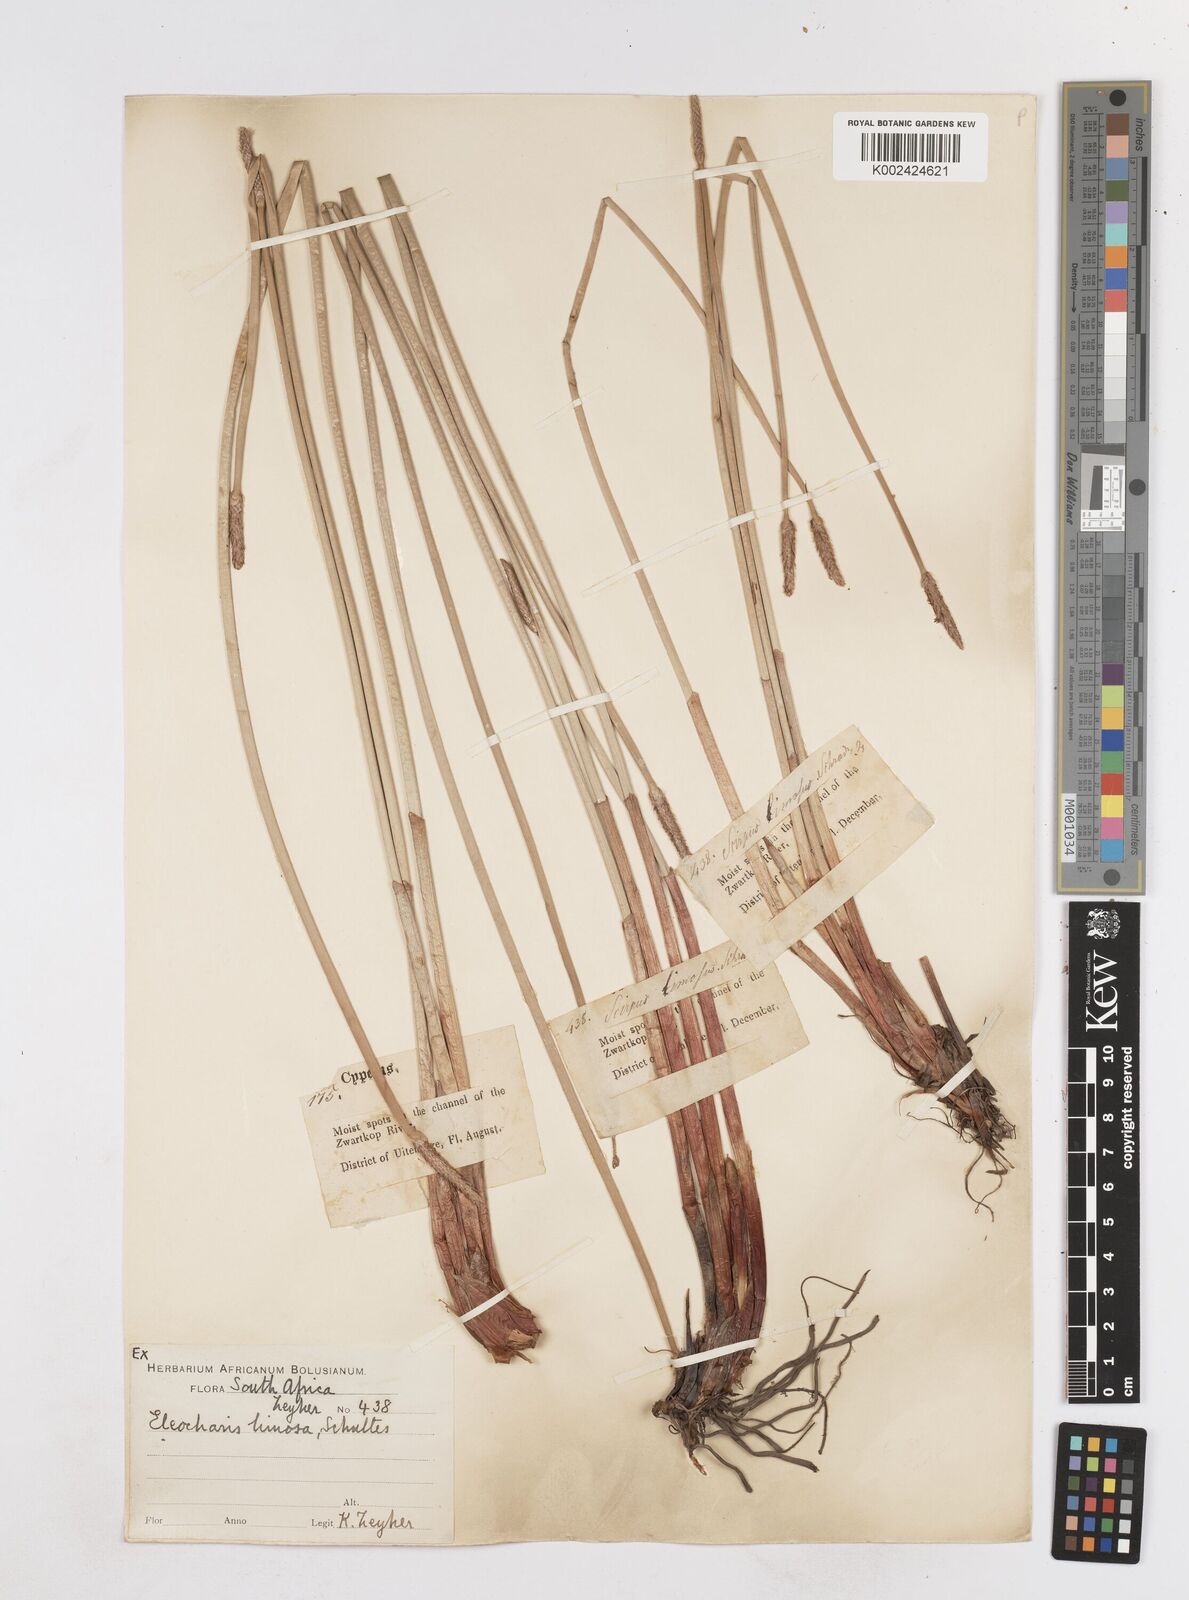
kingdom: Plantae
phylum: Tracheophyta
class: Liliopsida
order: Poales
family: Cyperaceae
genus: Eleocharis
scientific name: Eleocharis limosa
